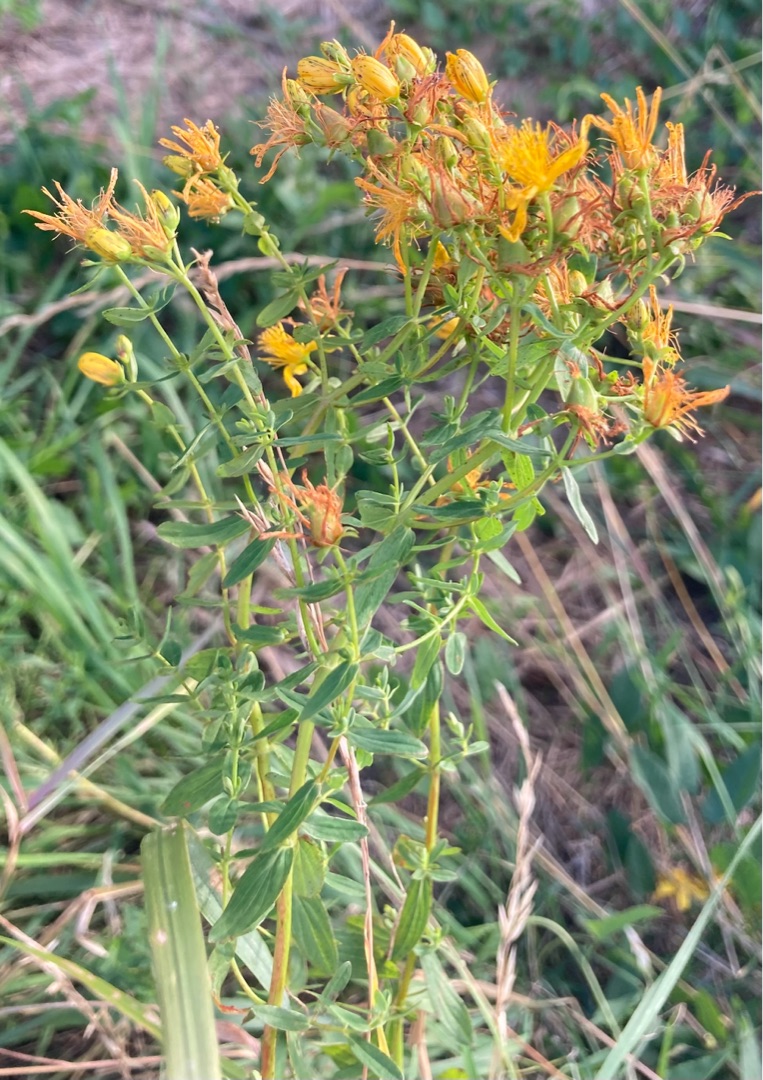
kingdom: Plantae
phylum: Tracheophyta
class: Magnoliopsida
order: Malpighiales
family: Hypericaceae
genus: Hypericum
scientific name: Hypericum perforatum
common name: Prikbladet perikon
